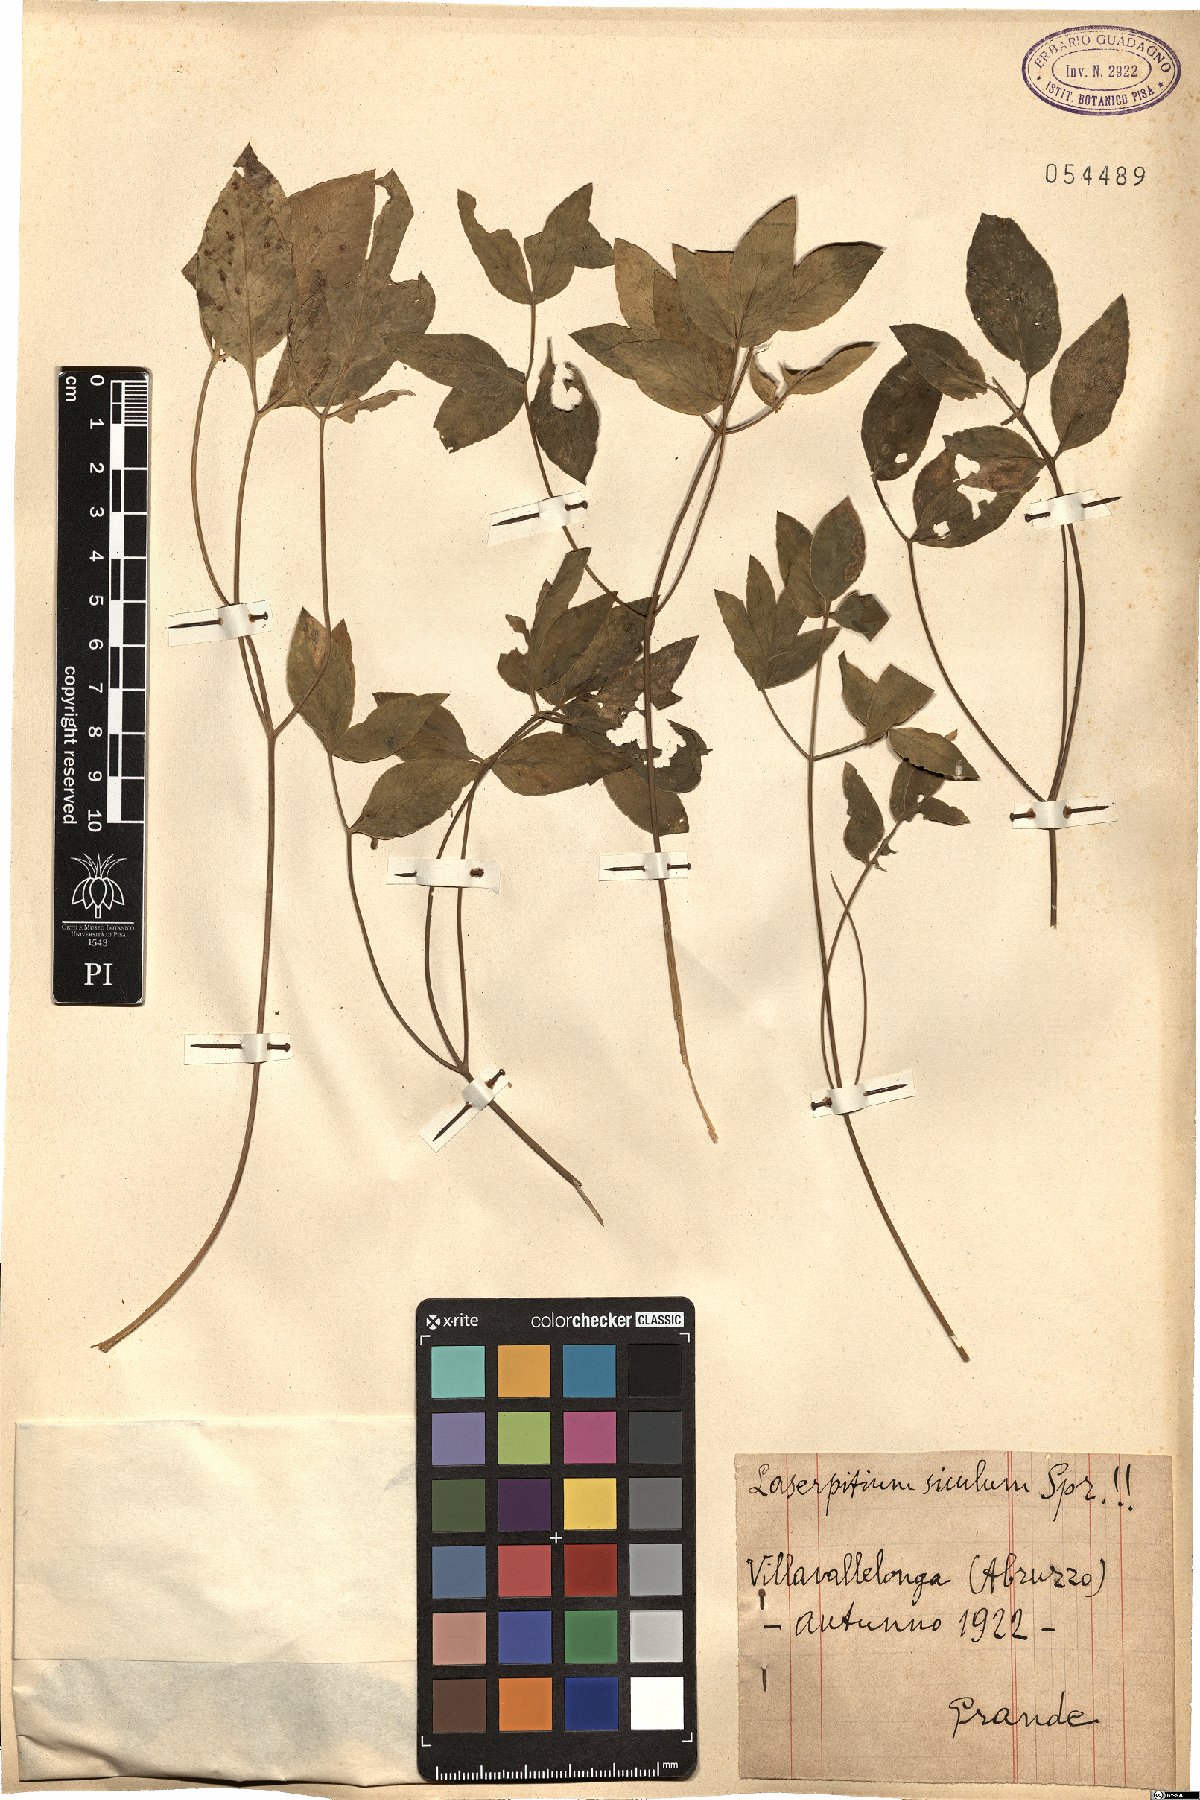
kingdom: Plantae
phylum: Tracheophyta
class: Magnoliopsida
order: Apiales
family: Apiaceae
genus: Siler
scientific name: Siler montanum
